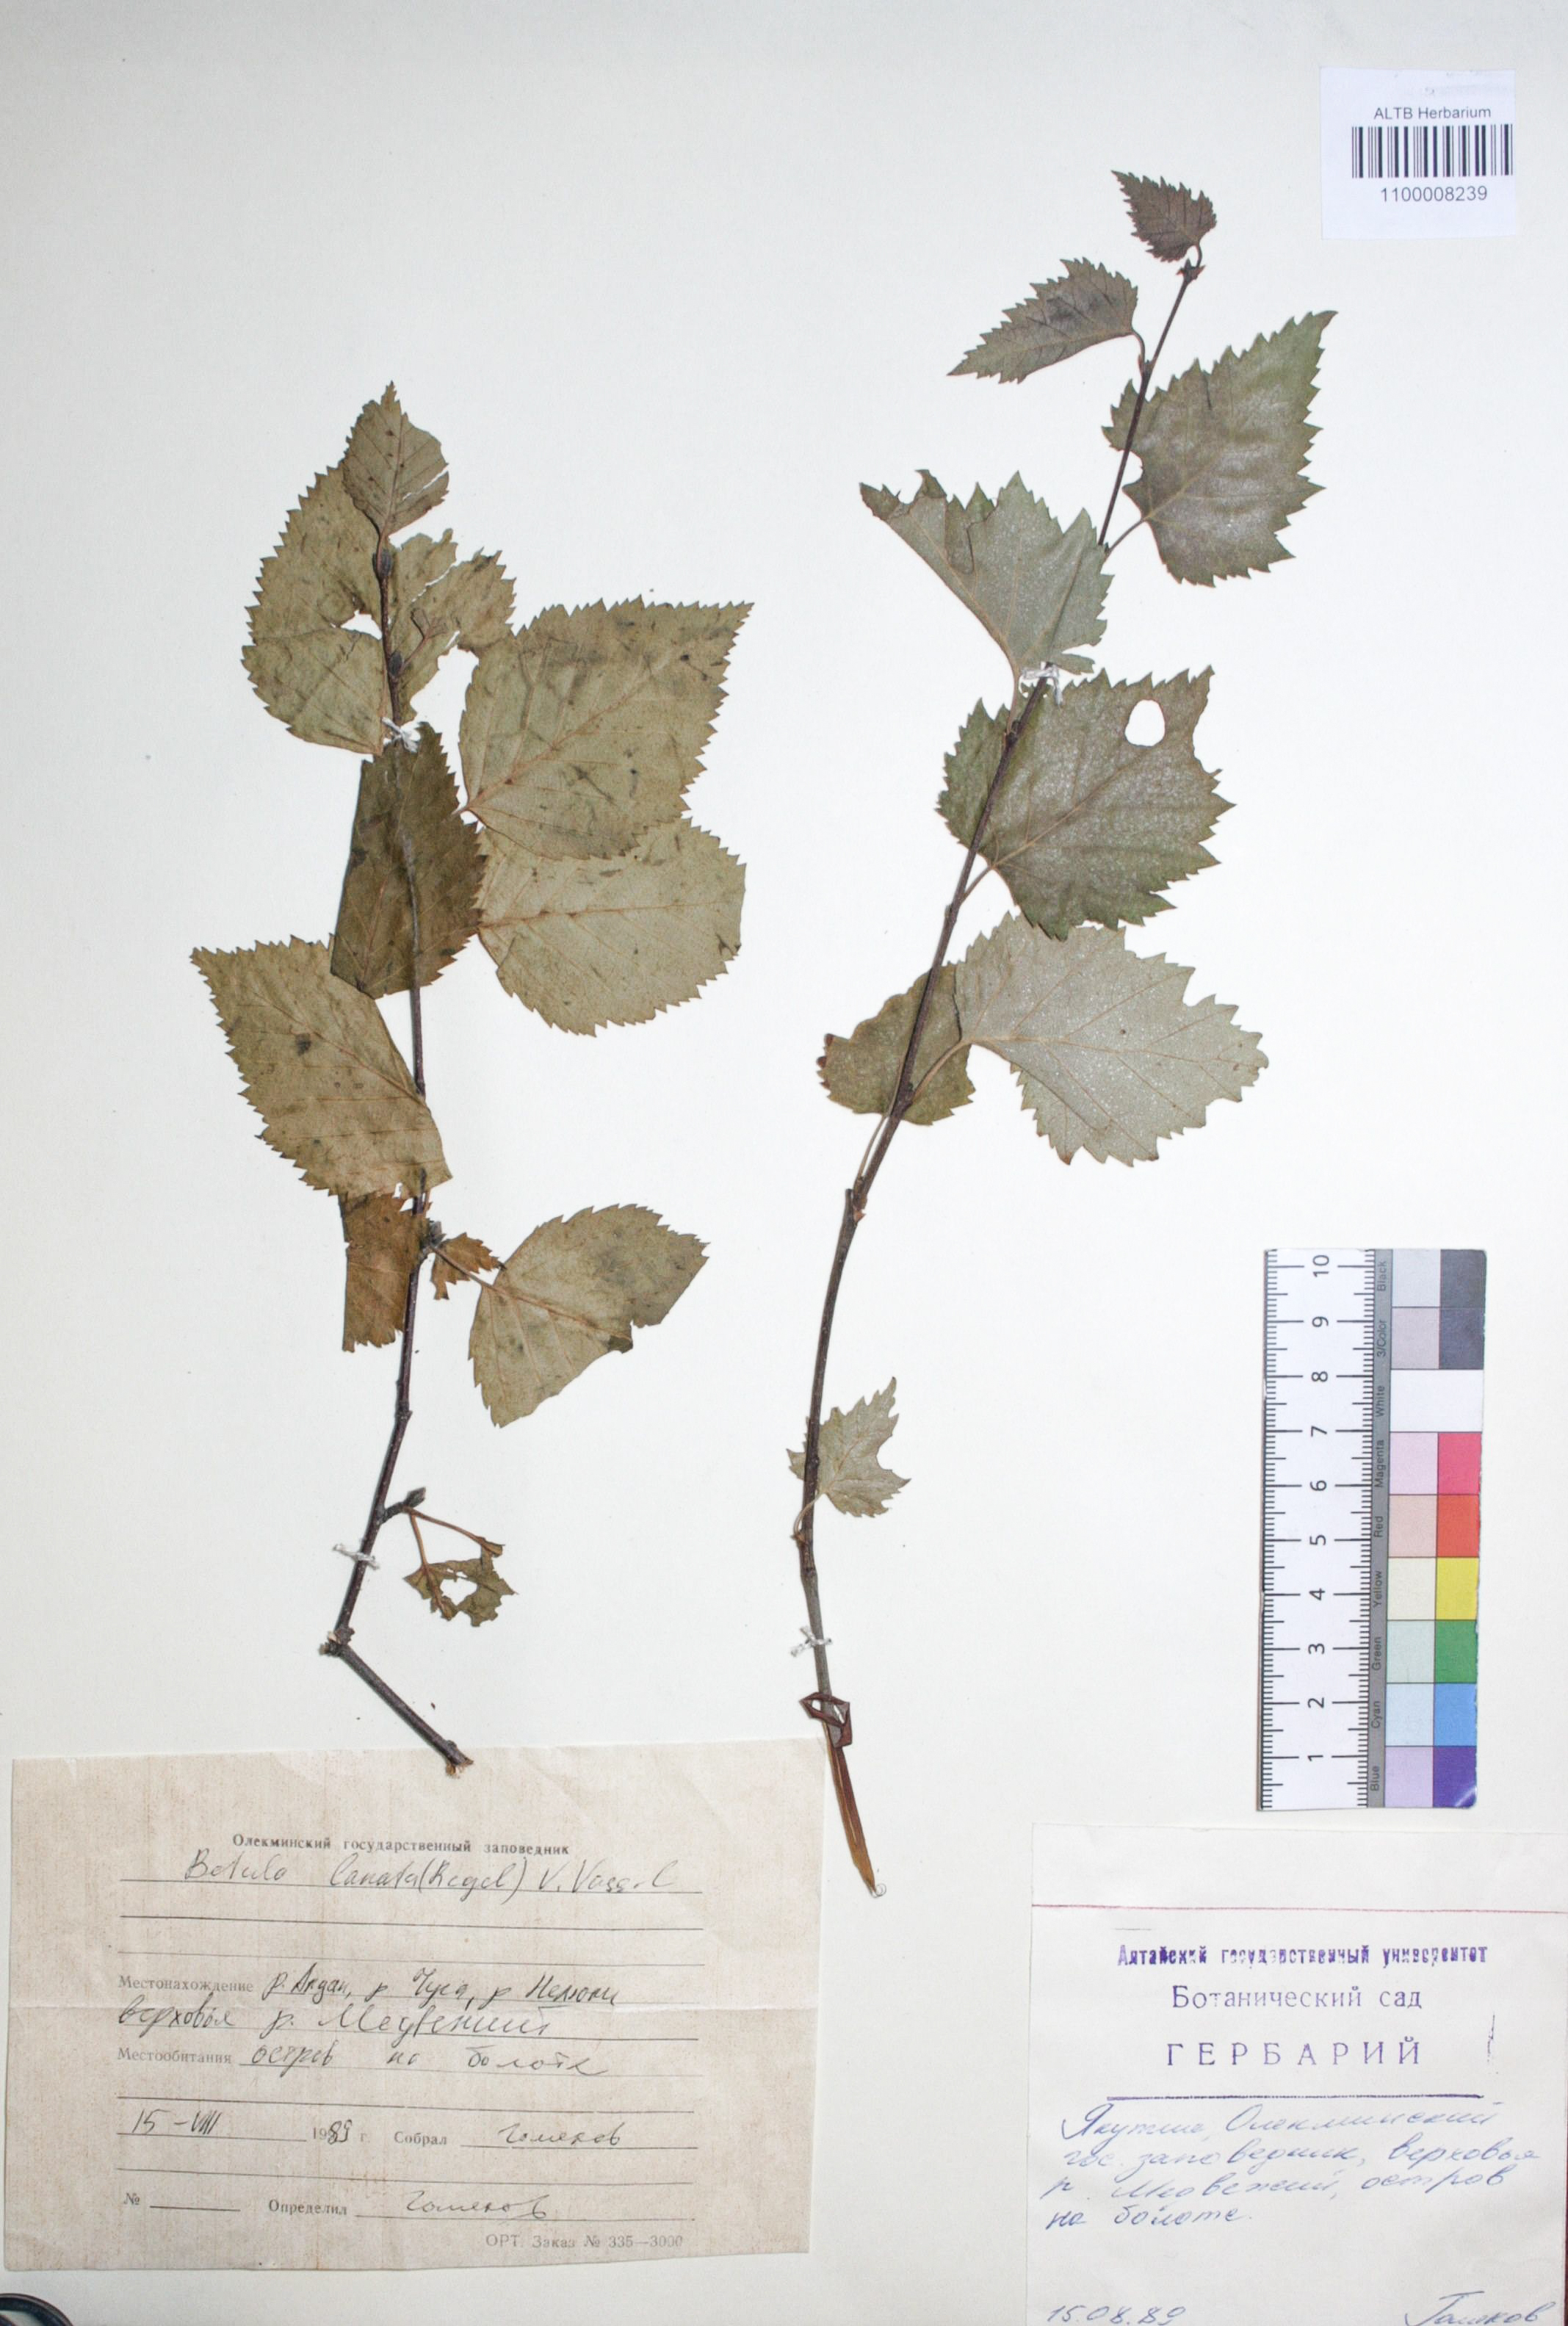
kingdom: Plantae
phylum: Tracheophyta
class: Magnoliopsida
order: Fagales
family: Betulaceae
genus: Betula
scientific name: Betula ermanii
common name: Erman's birch
